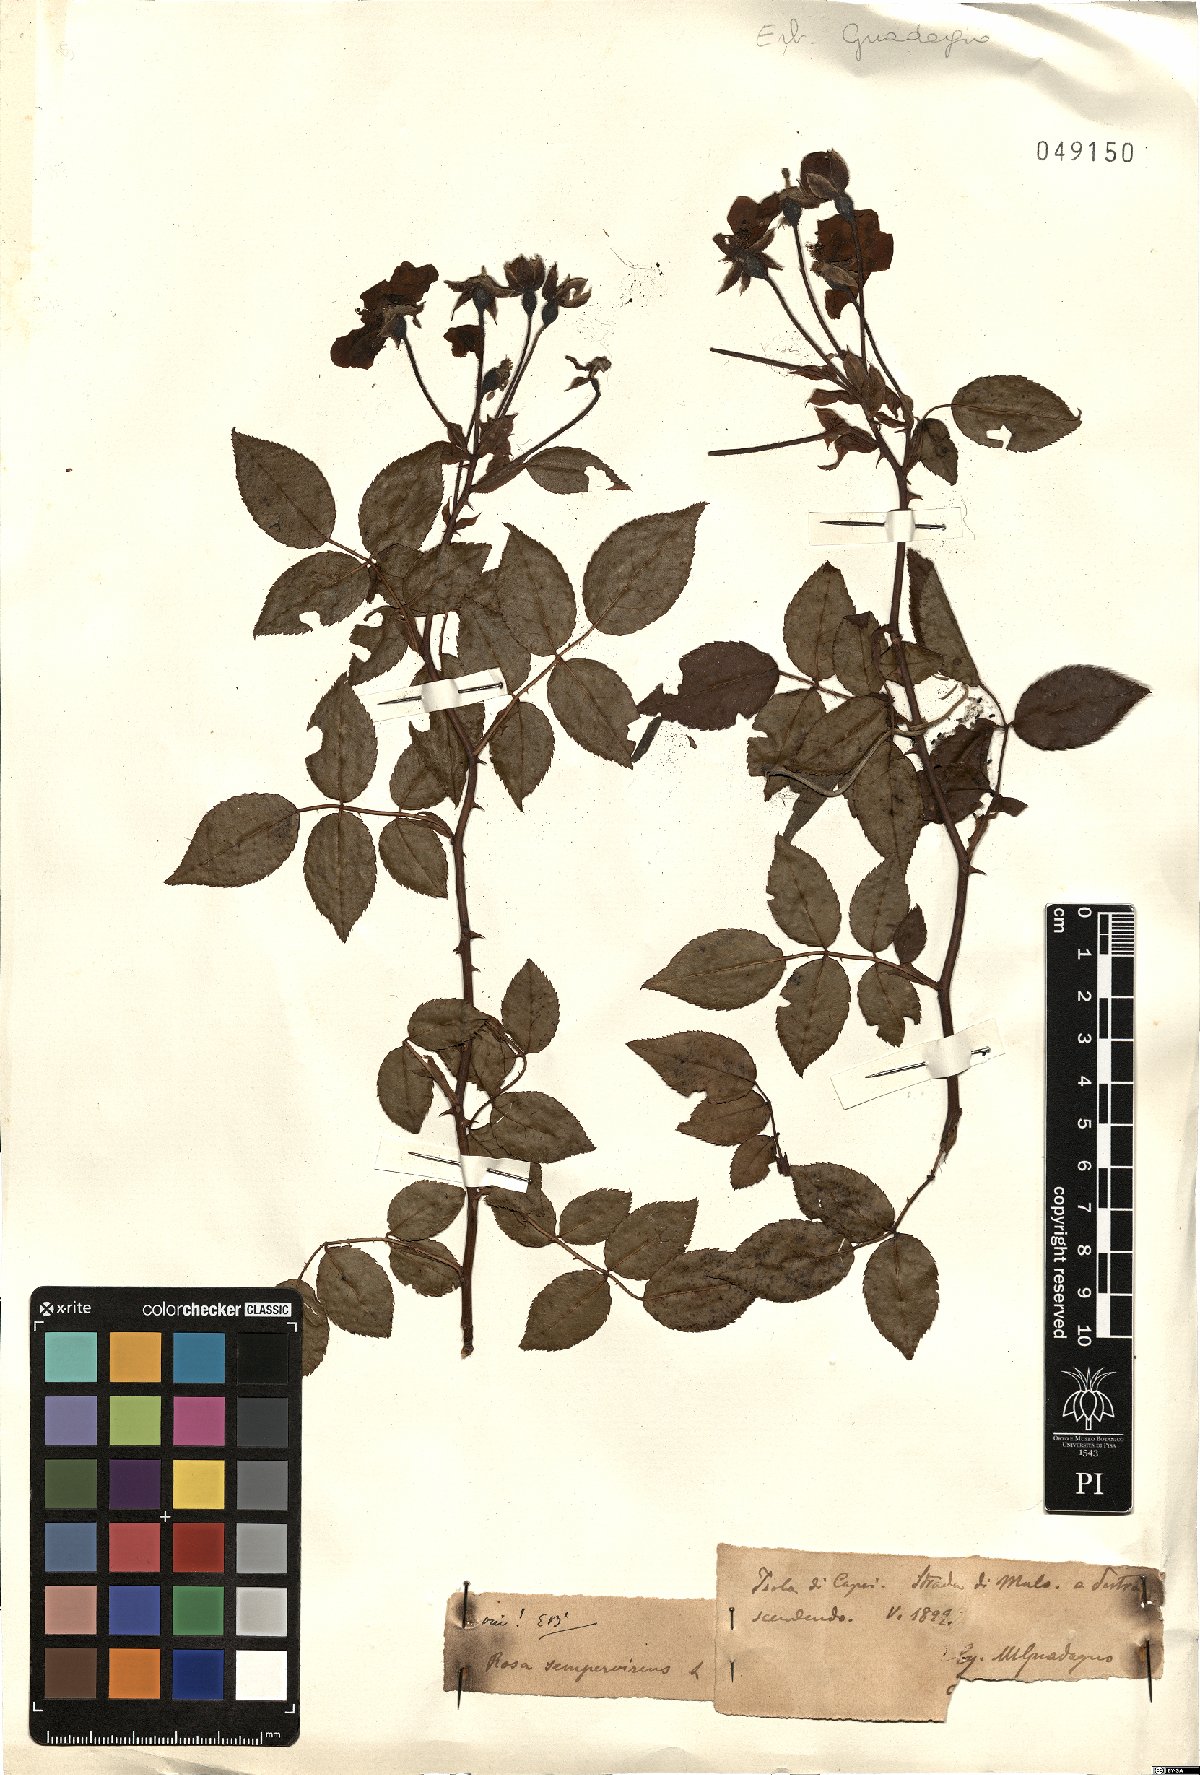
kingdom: Plantae
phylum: Tracheophyta
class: Magnoliopsida
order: Rosales
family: Rosaceae
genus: Rosa
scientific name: Rosa sempervirens
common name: Evergreen rose
